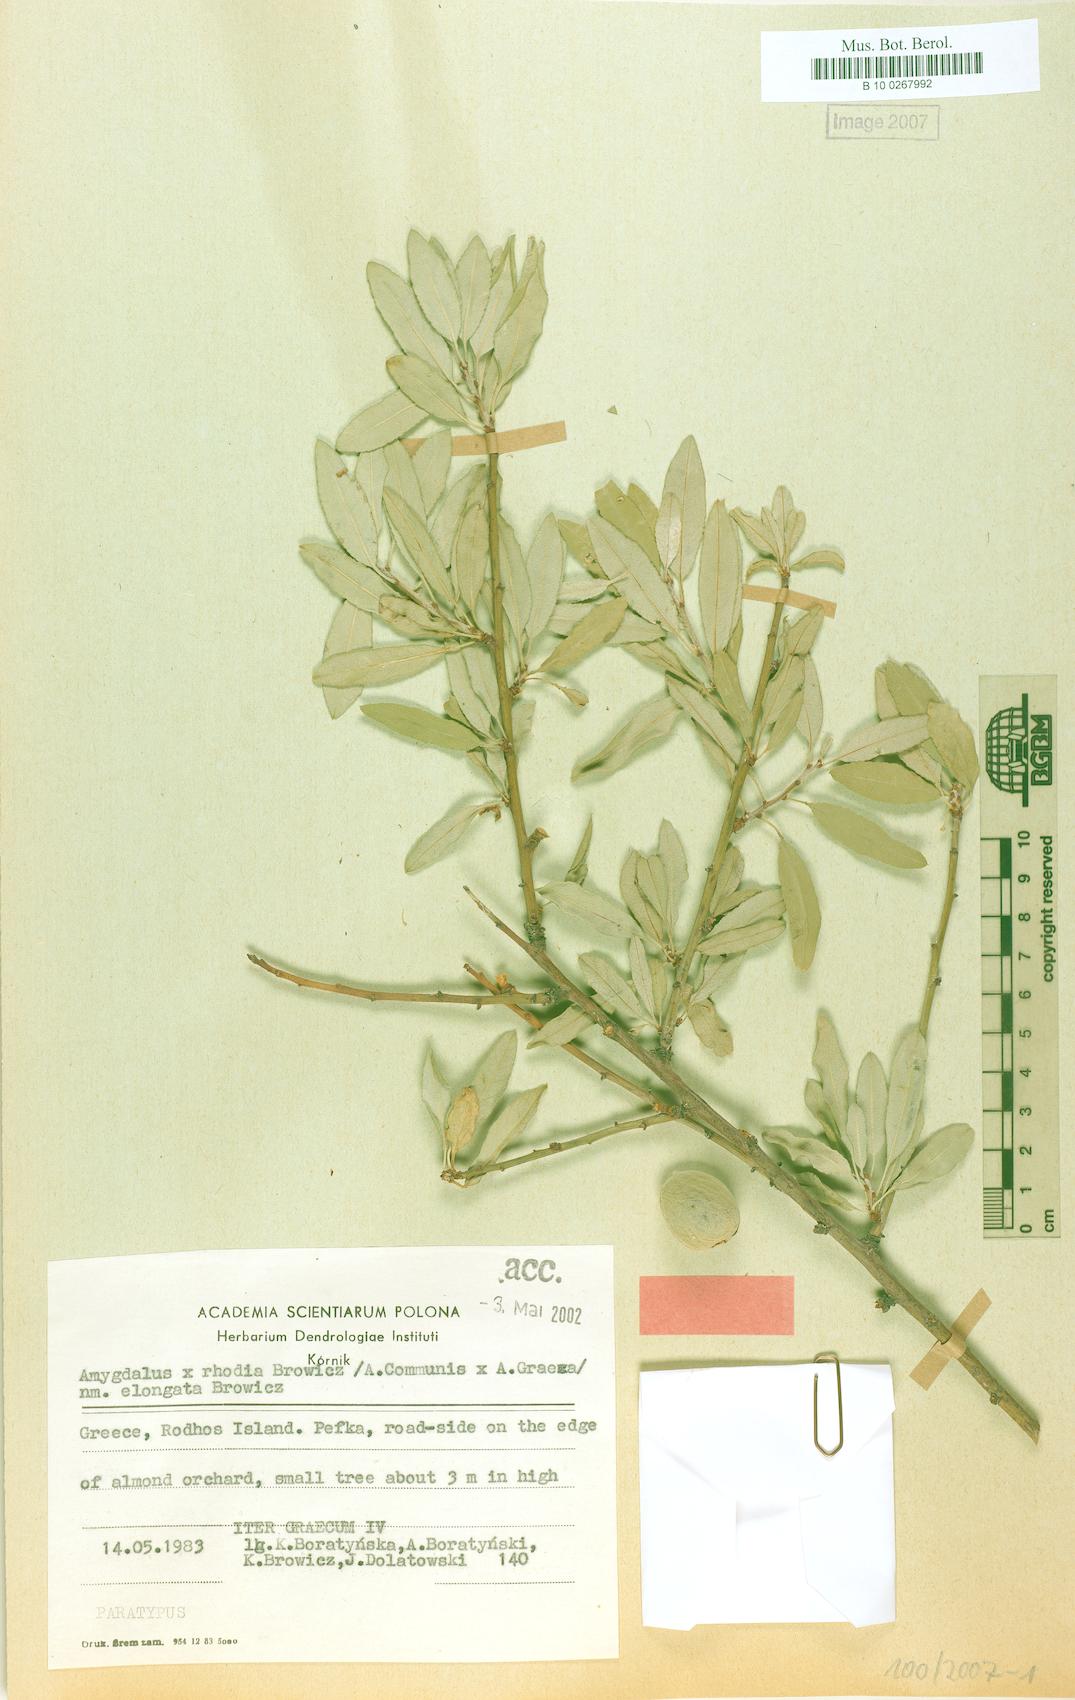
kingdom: Plantae
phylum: Tracheophyta
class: Magnoliopsida
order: Rosales
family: Rosaceae
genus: Prunus
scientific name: Prunus rhodia
